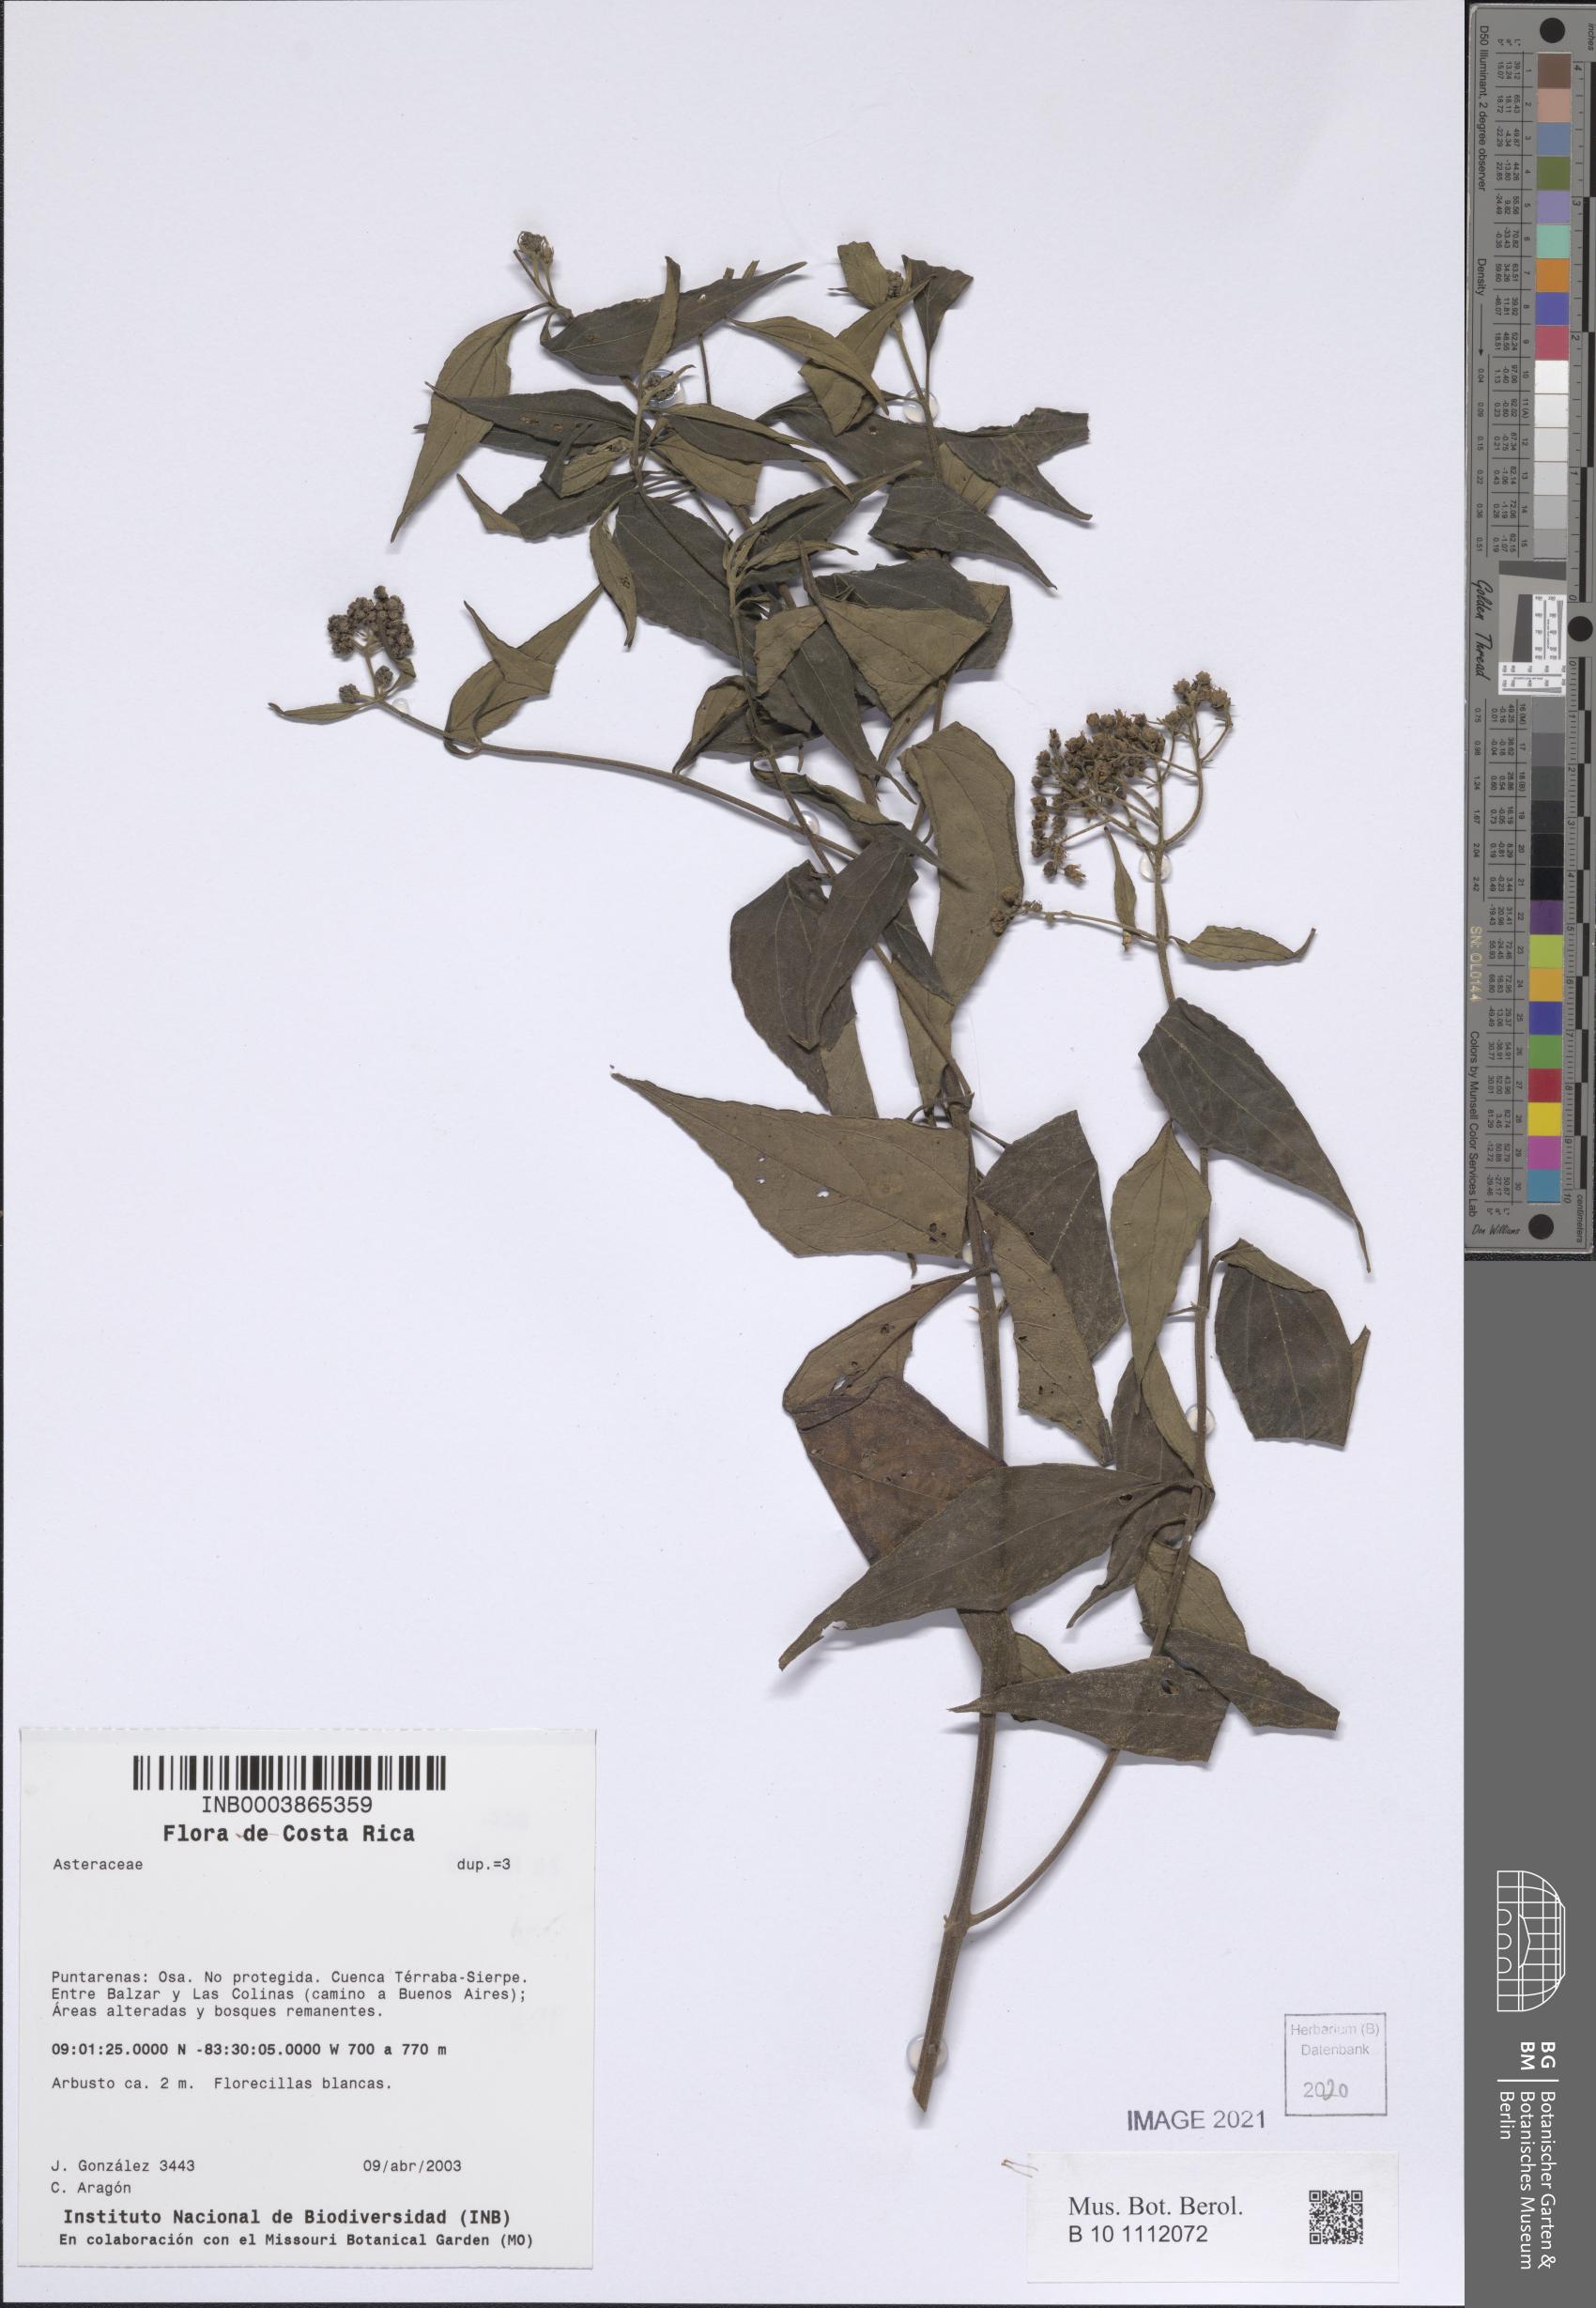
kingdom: Plantae
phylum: Tracheophyta
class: Magnoliopsida
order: Asterales
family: Asteraceae
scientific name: Asteraceae
